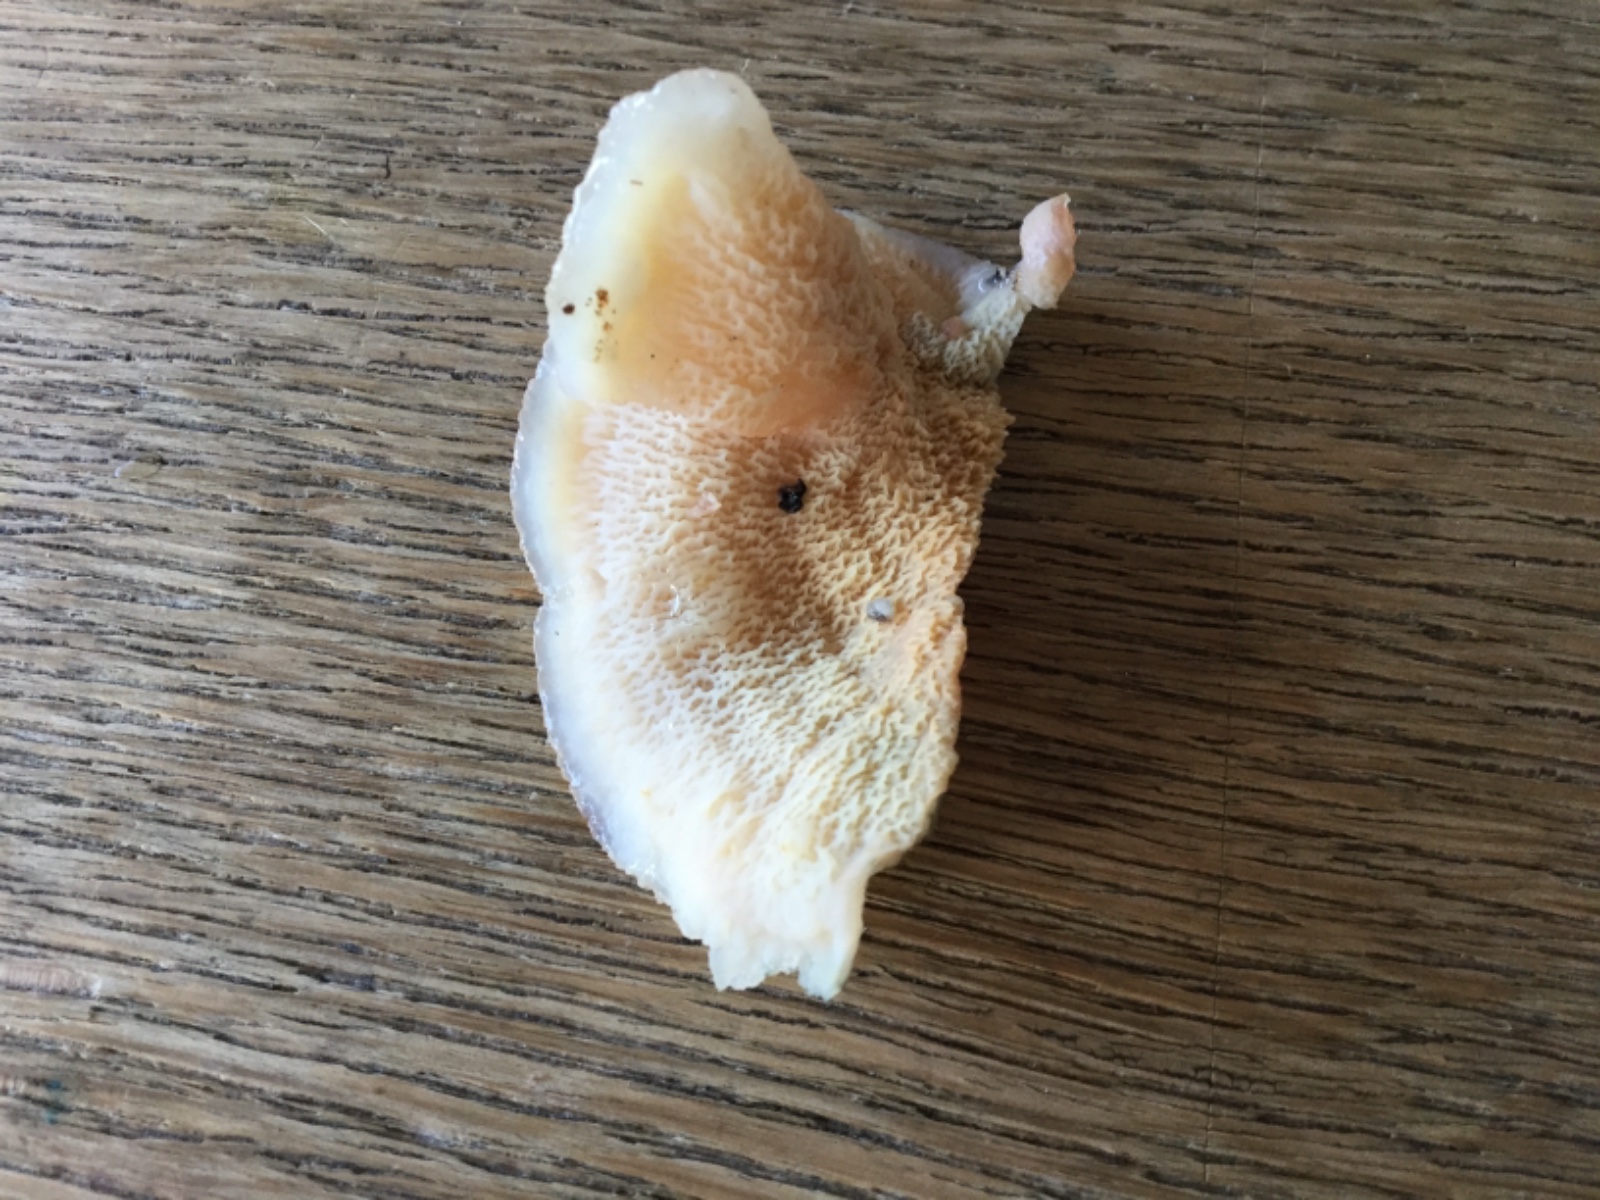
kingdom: Fungi
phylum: Basidiomycota
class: Agaricomycetes
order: Polyporales
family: Meruliaceae
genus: Phlebia
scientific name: Phlebia tremellosa
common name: bævrende åresvamp
